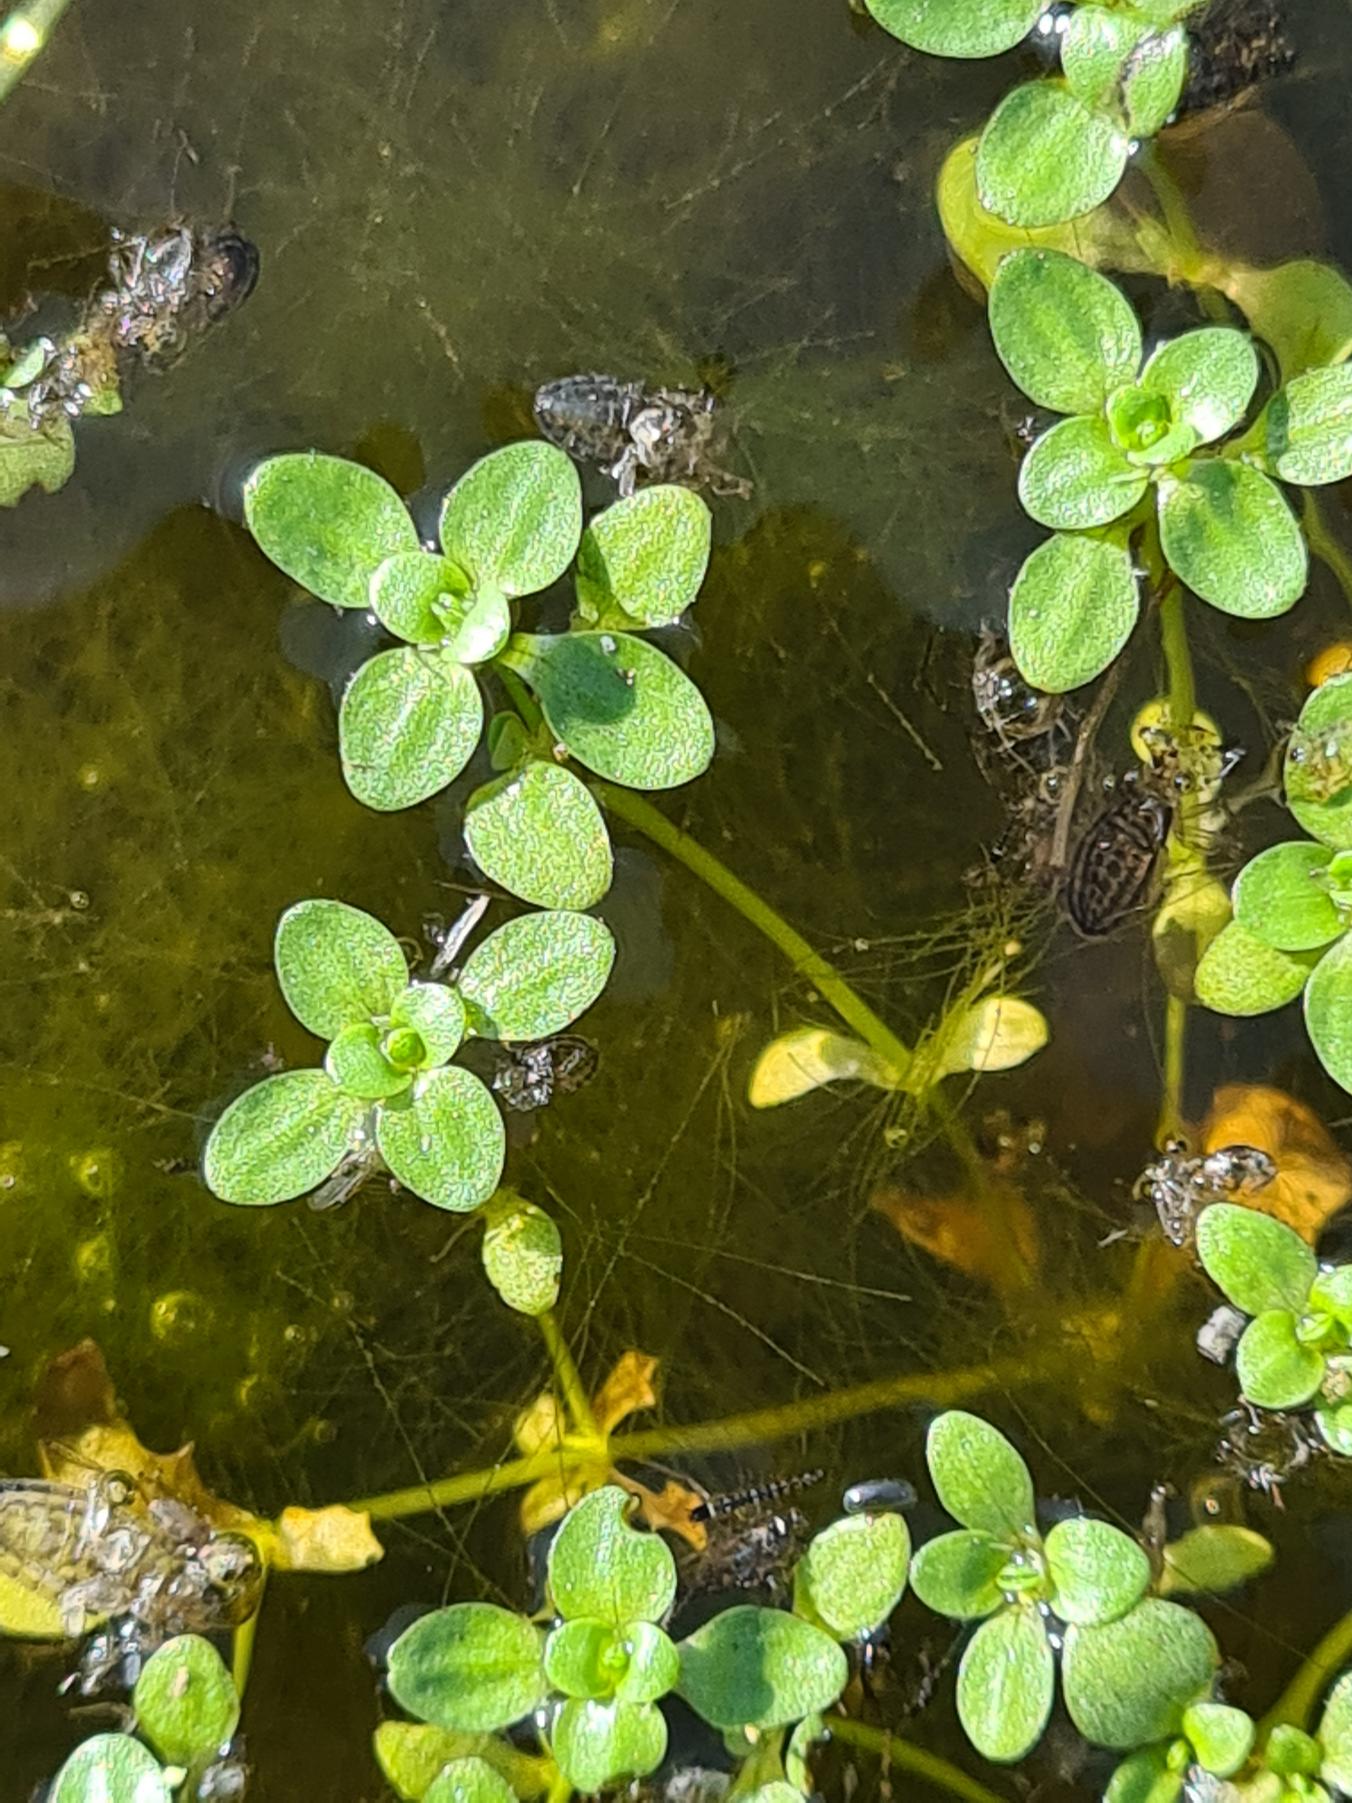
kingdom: Plantae
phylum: Tracheophyta
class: Magnoliopsida
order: Lamiales
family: Plantaginaceae
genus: Callitriche
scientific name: Callitriche stagnalis
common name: Storfrugtet vandstjerne
